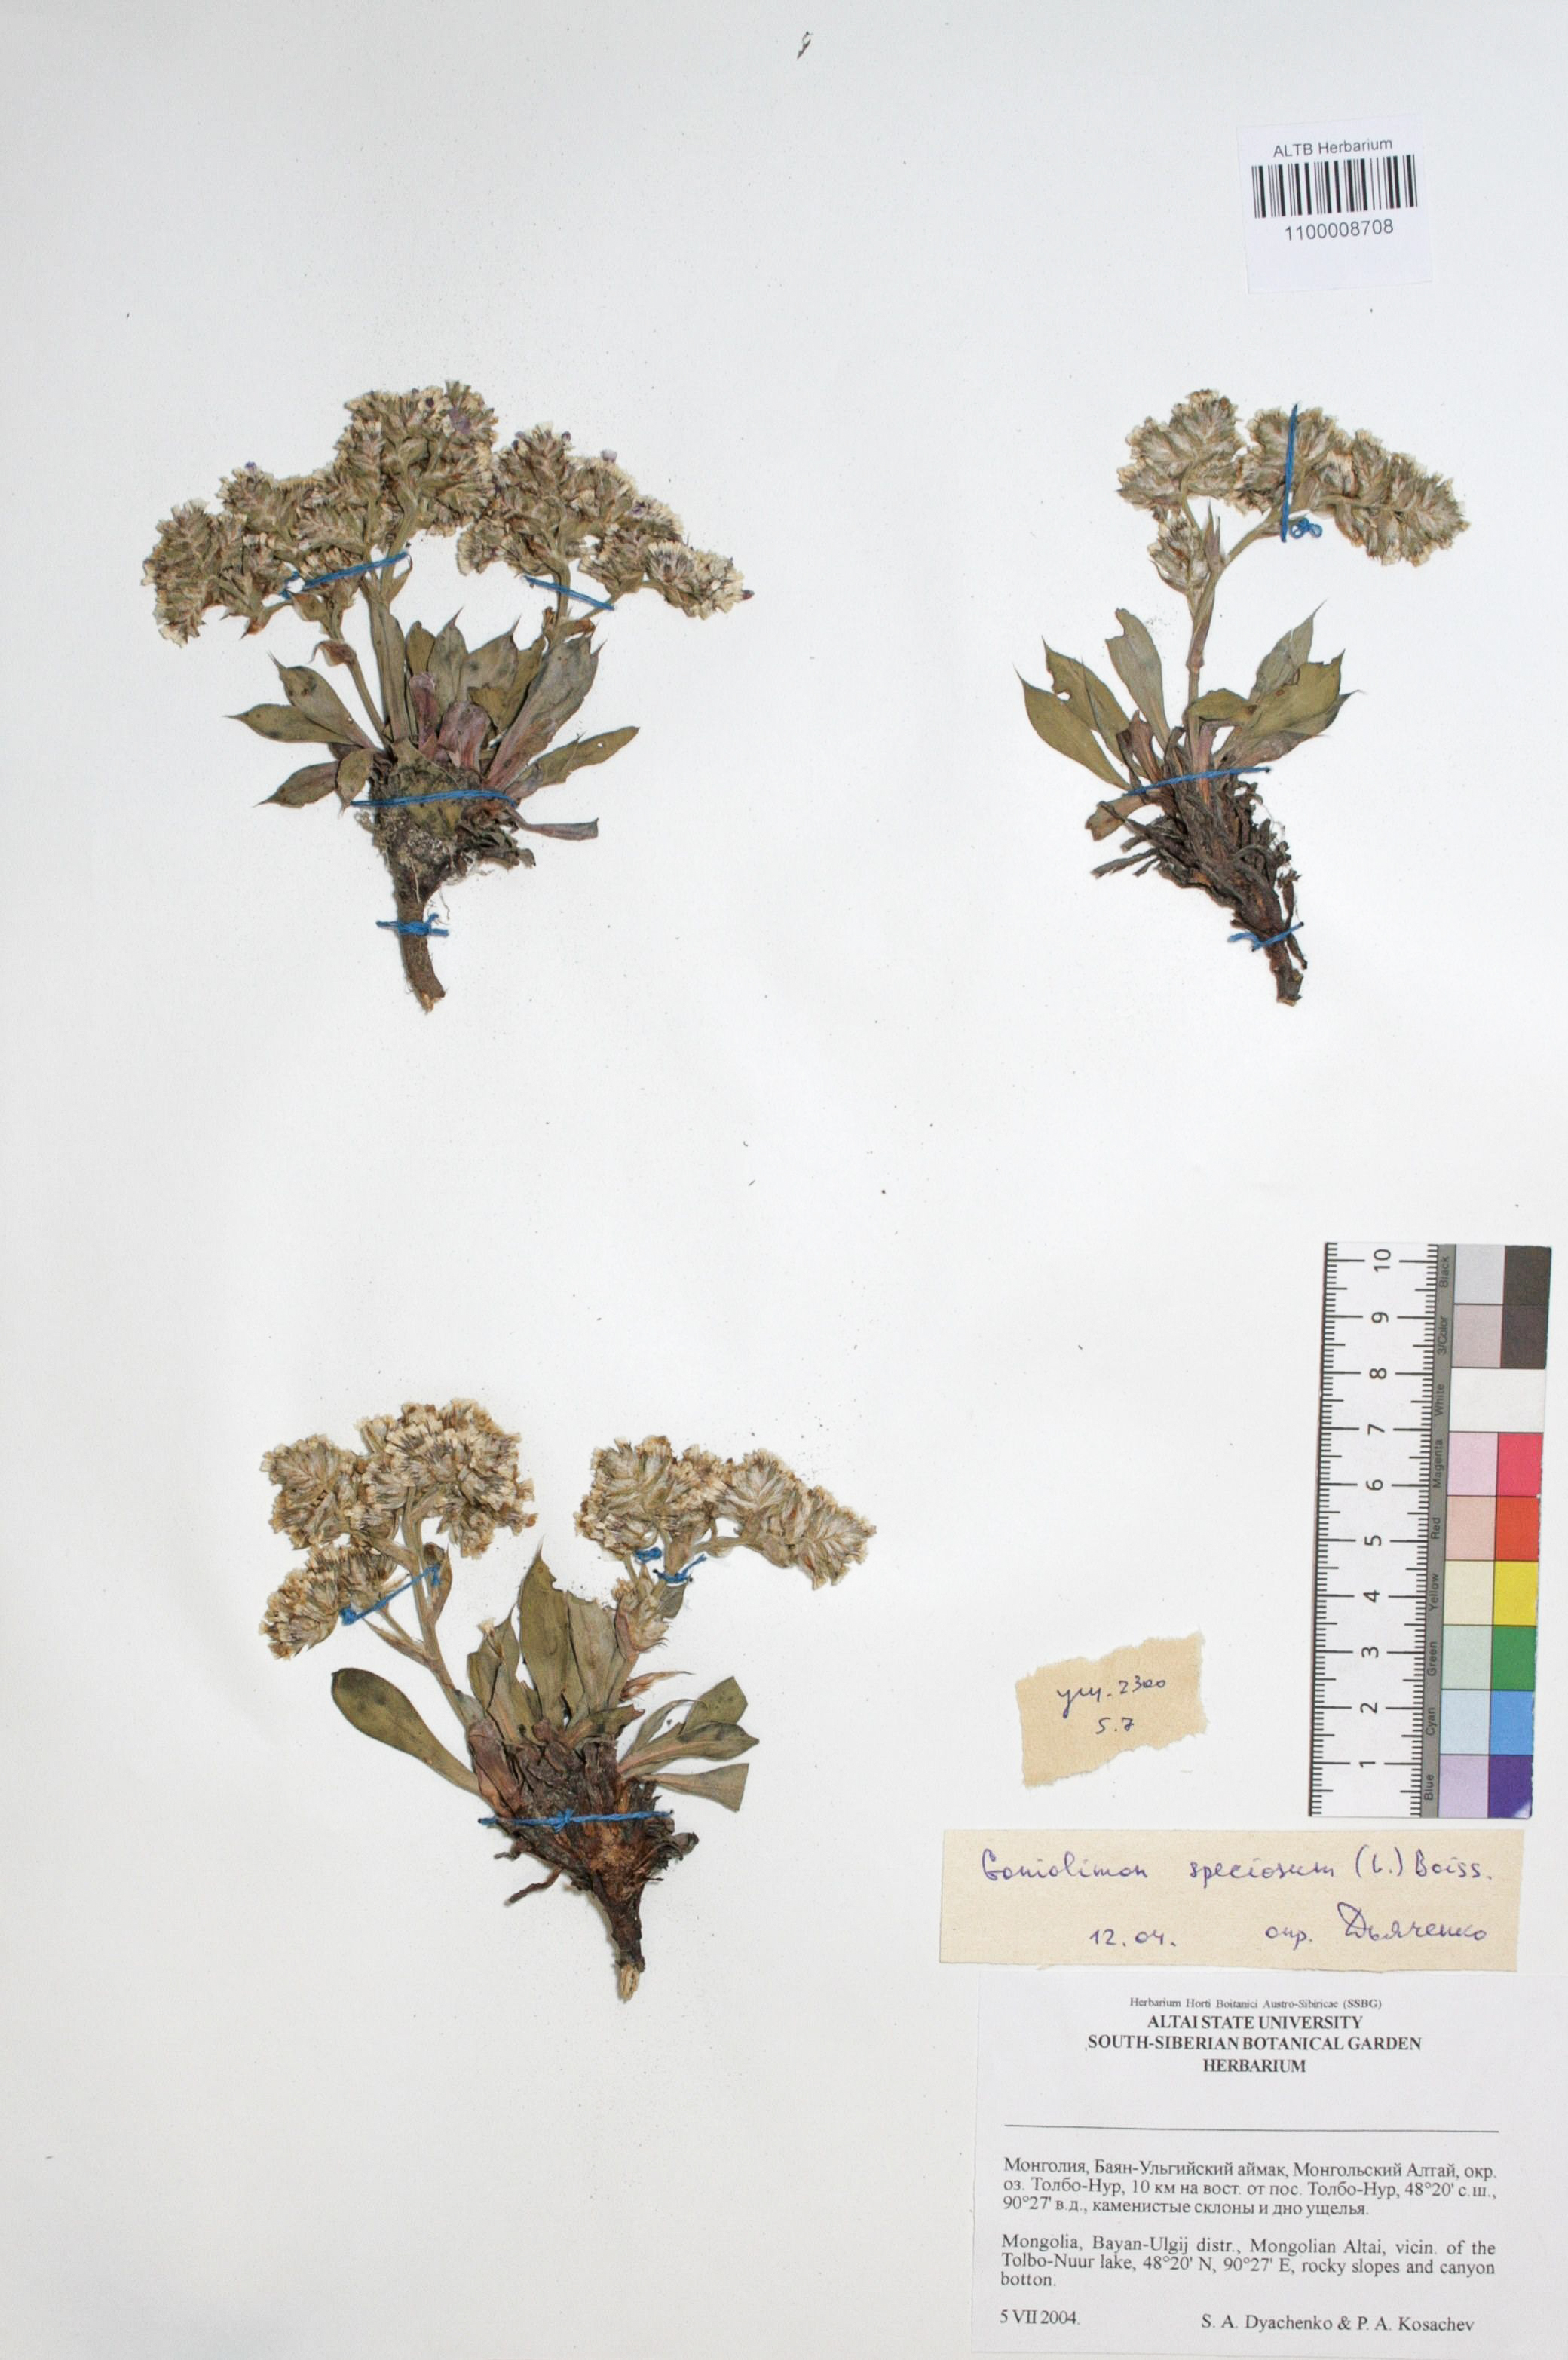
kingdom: Plantae
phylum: Tracheophyta
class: Magnoliopsida
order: Caryophyllales
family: Plumbaginaceae
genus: Goniolimon
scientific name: Goniolimon speciosum
